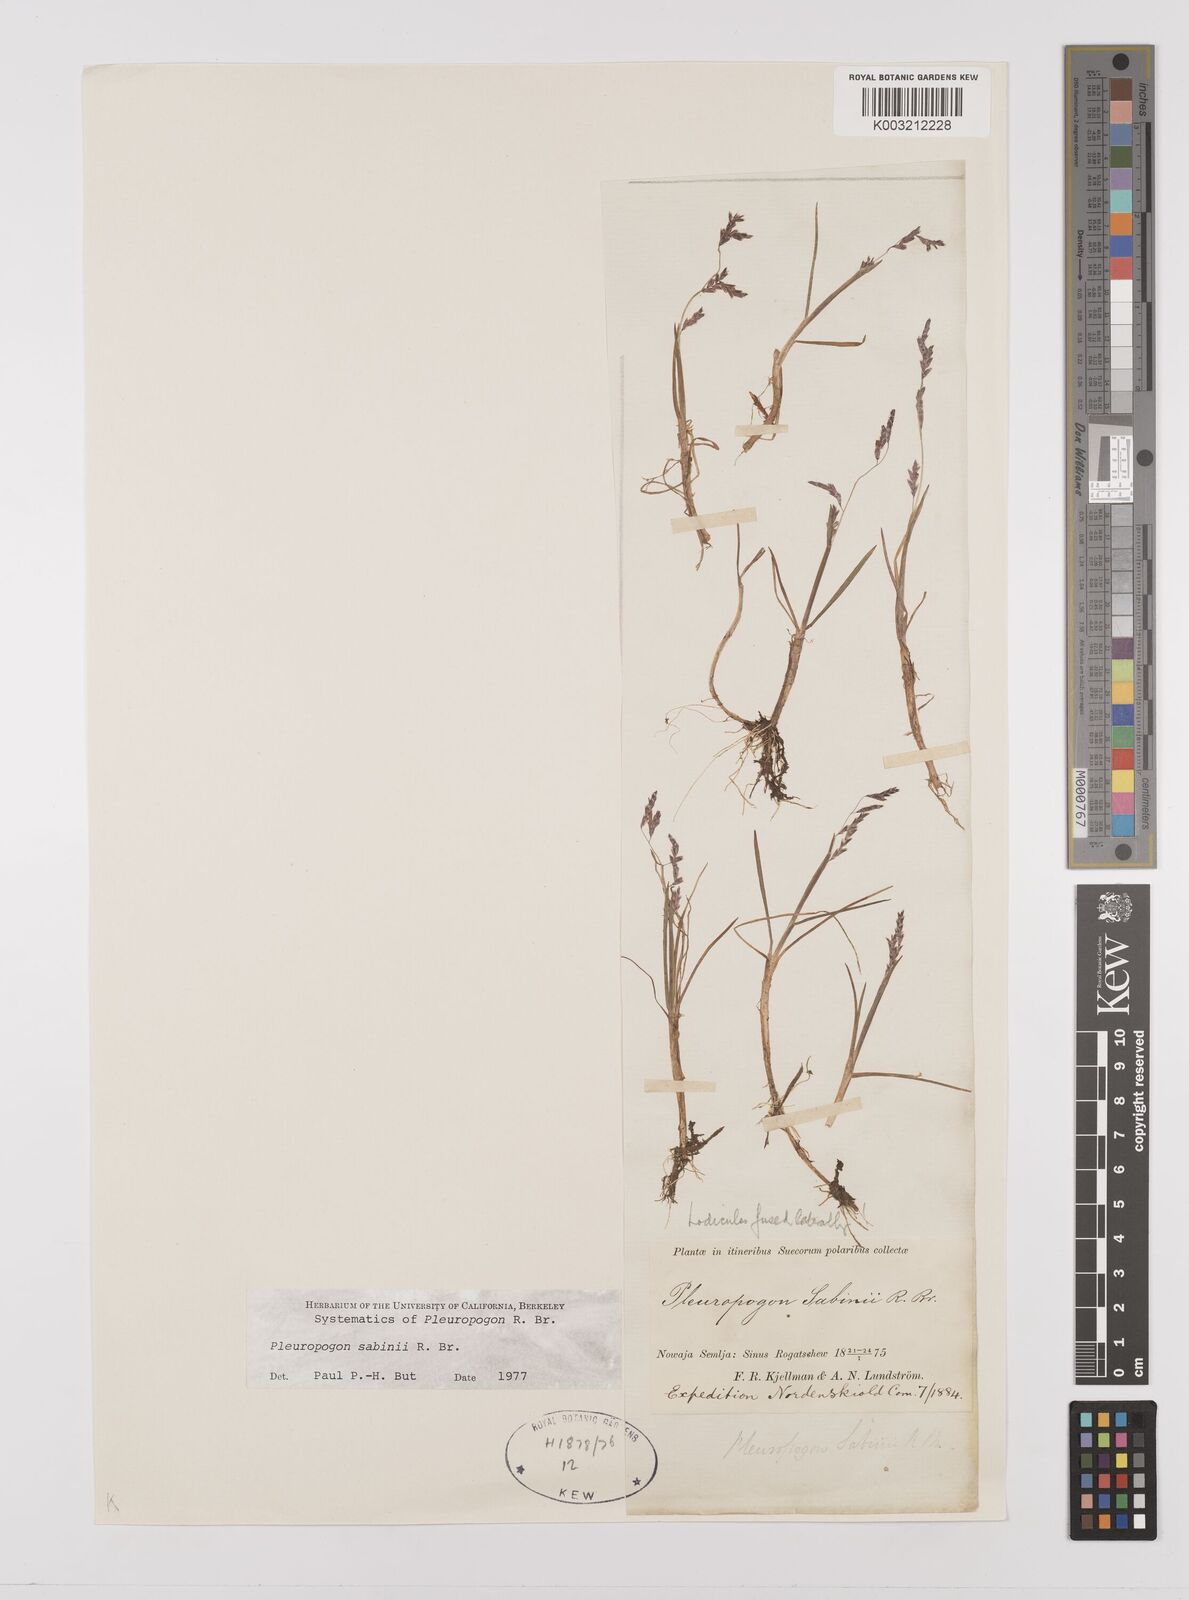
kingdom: Plantae
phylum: Tracheophyta
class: Liliopsida
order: Poales
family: Poaceae
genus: Pleuropogon
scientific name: Pleuropogon sabinei
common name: Sabine's false semaphoregrass
